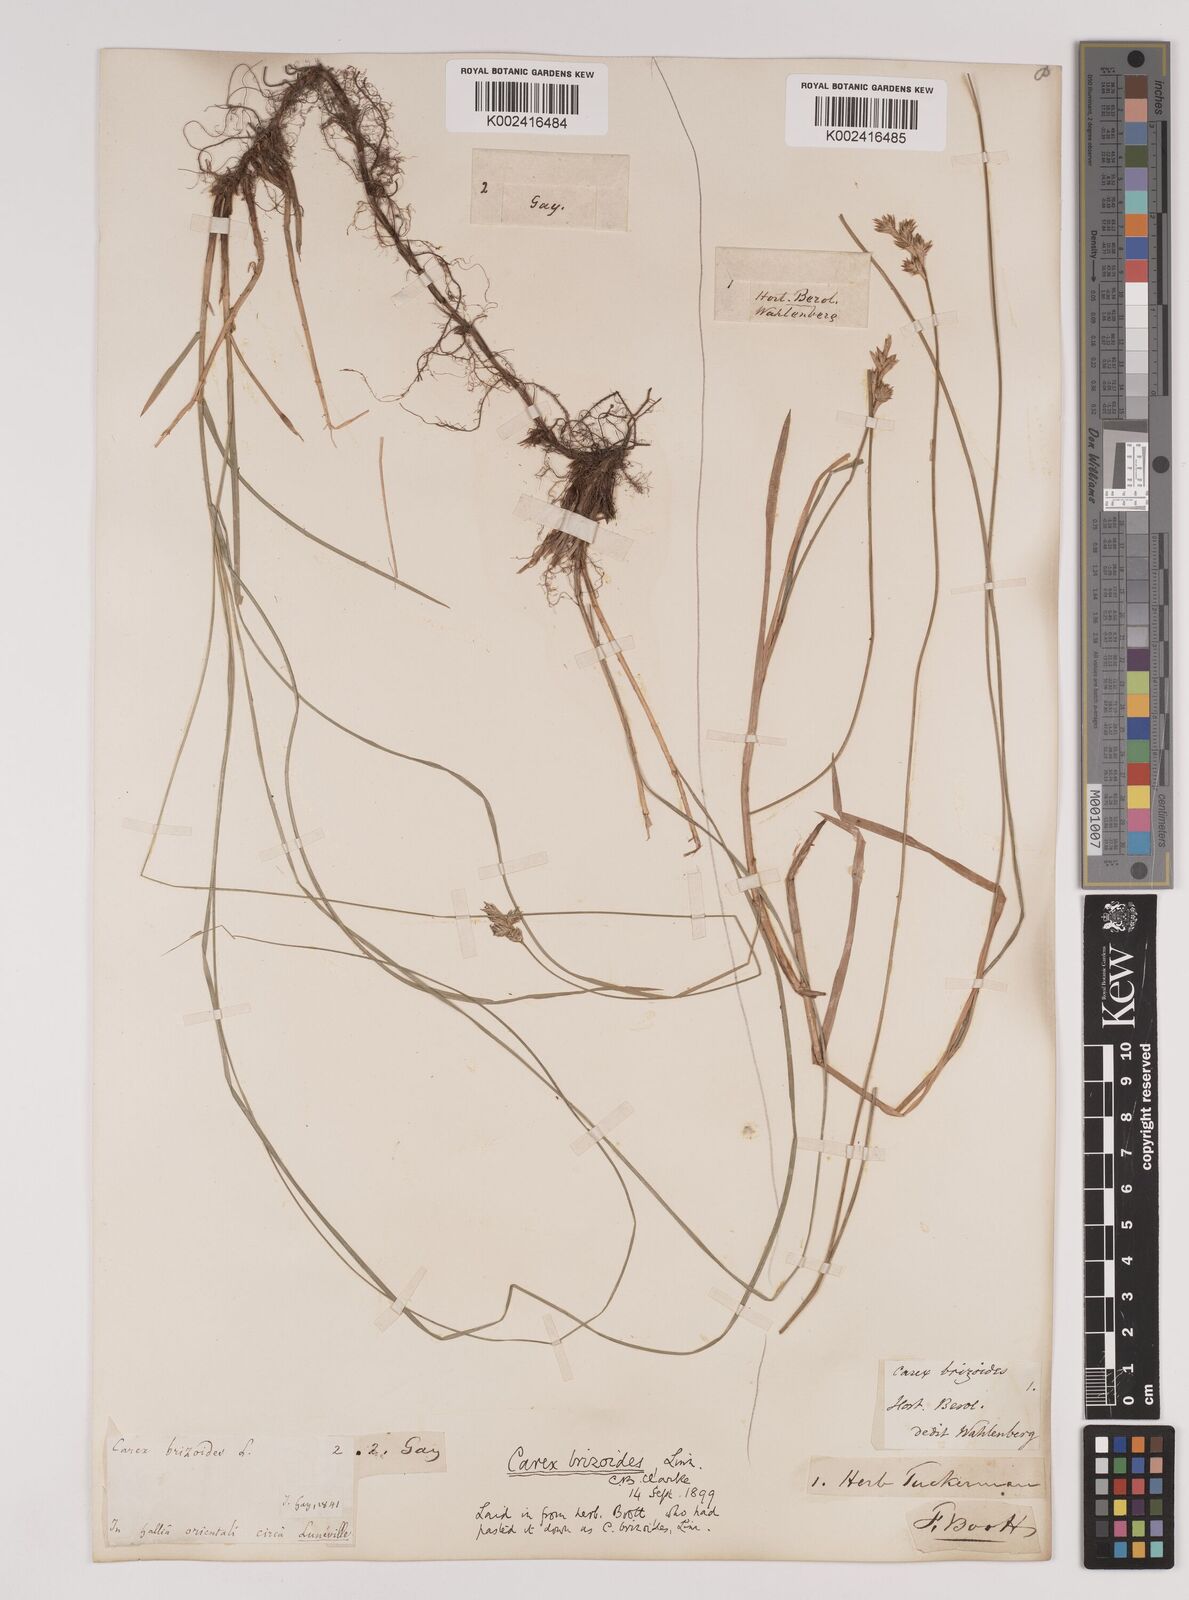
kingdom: Plantae
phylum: Tracheophyta
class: Liliopsida
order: Poales
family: Cyperaceae
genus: Carex
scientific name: Carex brizoides
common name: Quaking-grass sedge
